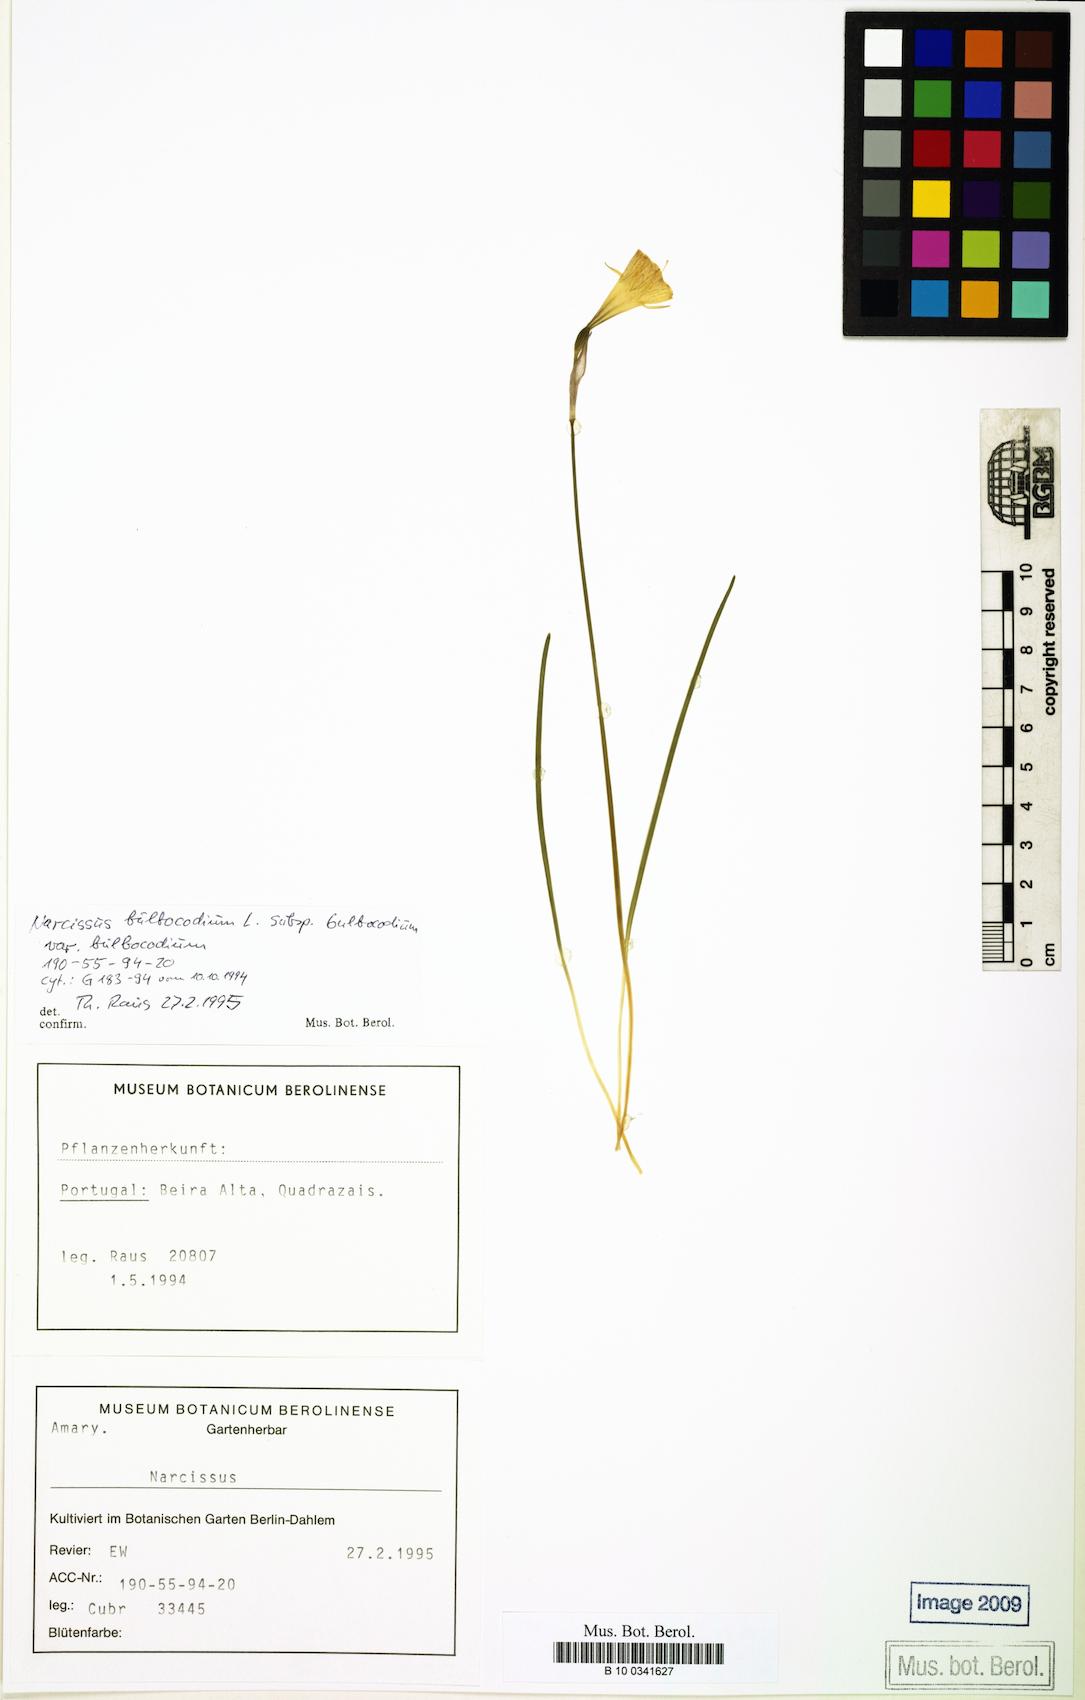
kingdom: Plantae
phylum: Tracheophyta
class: Liliopsida
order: Asparagales
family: Amaryllidaceae
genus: Narcissus
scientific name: Narcissus bulbocodium
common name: Hoop-petticoat daffodil
